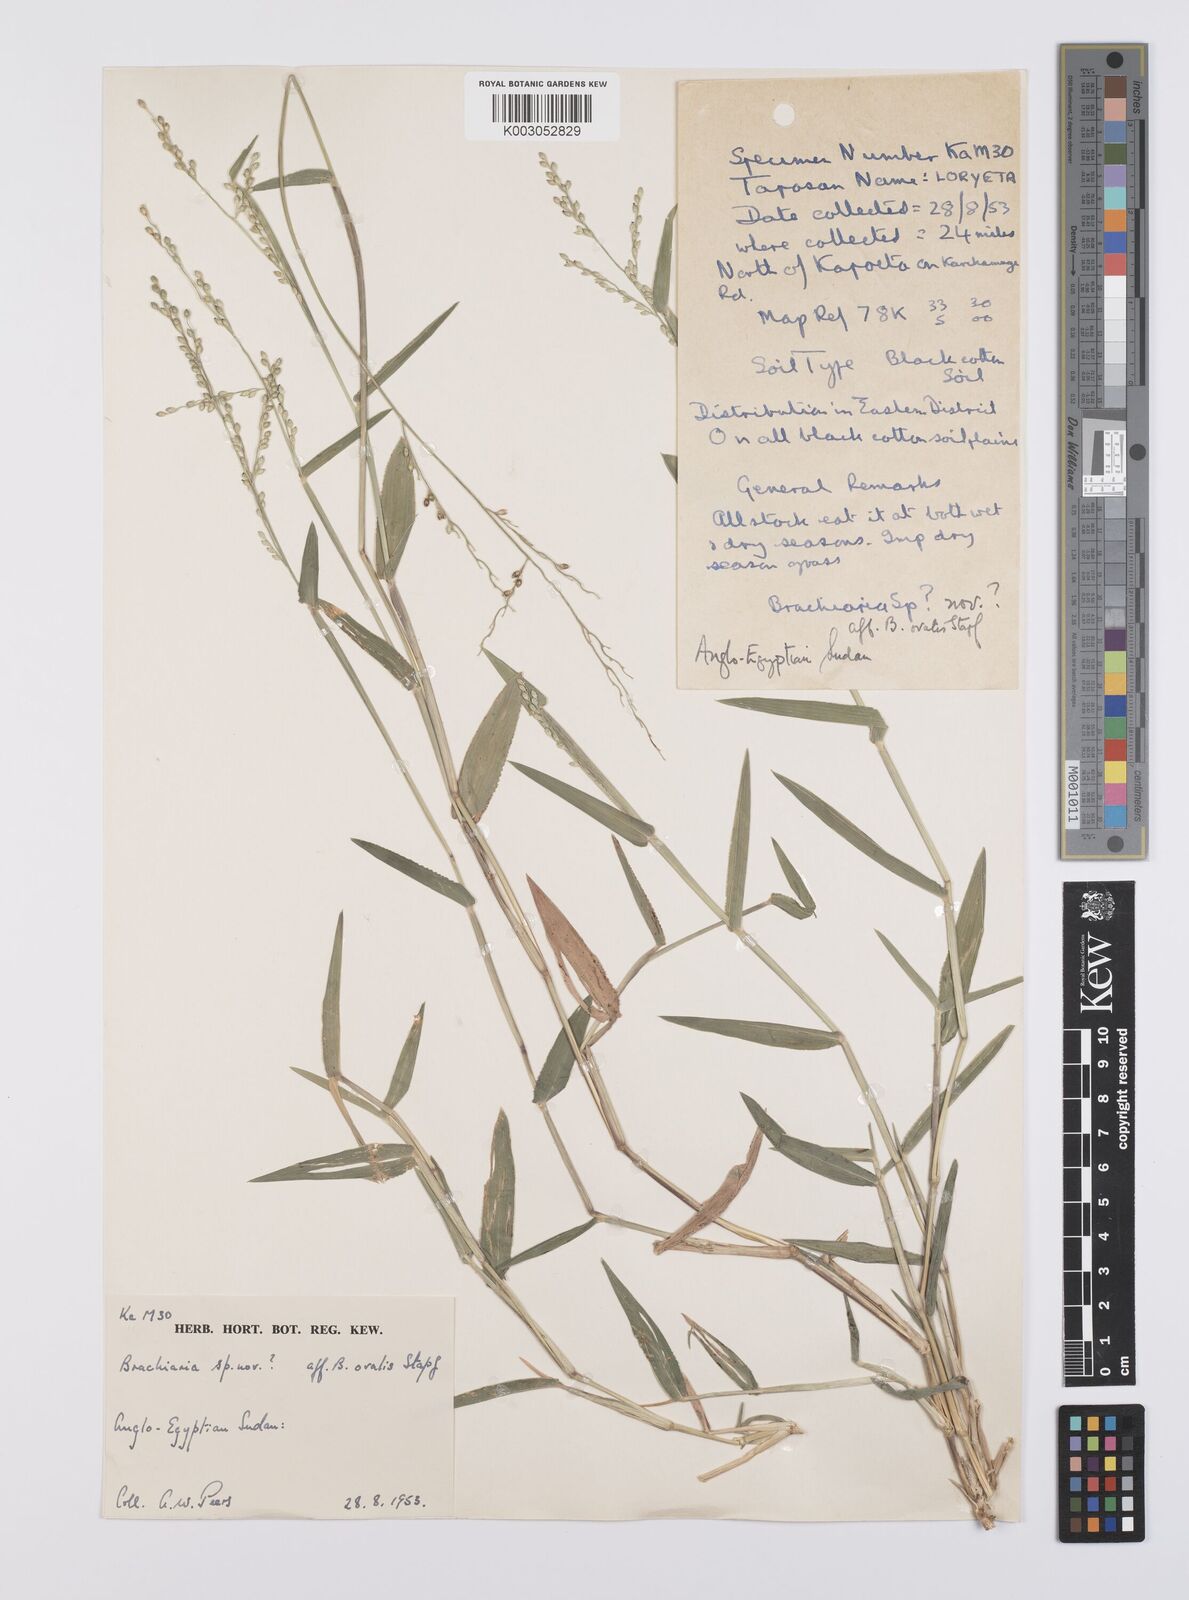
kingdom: Plantae
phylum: Tracheophyta
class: Liliopsida
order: Poales
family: Poaceae
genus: Urochloa
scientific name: Urochloa ovalis
